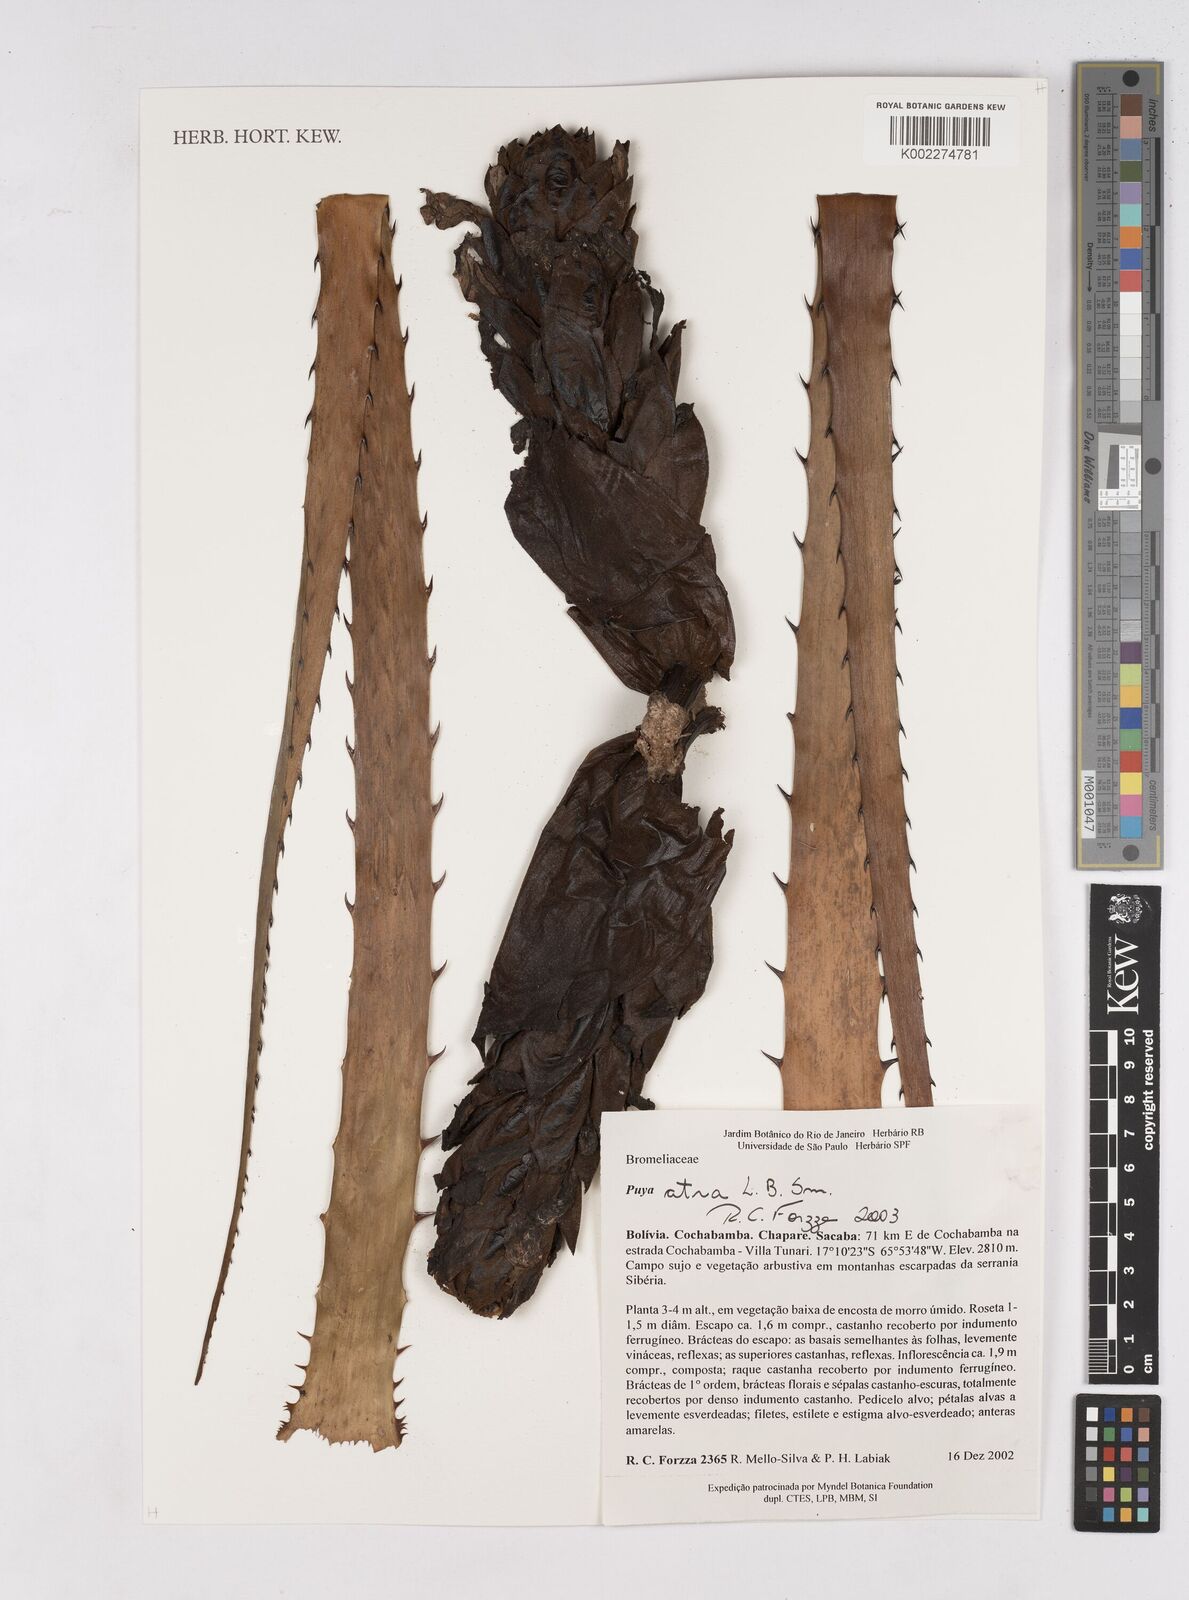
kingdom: Plantae
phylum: Tracheophyta
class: Liliopsida
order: Poales
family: Bromeliaceae
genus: Puya
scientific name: Puya atra
